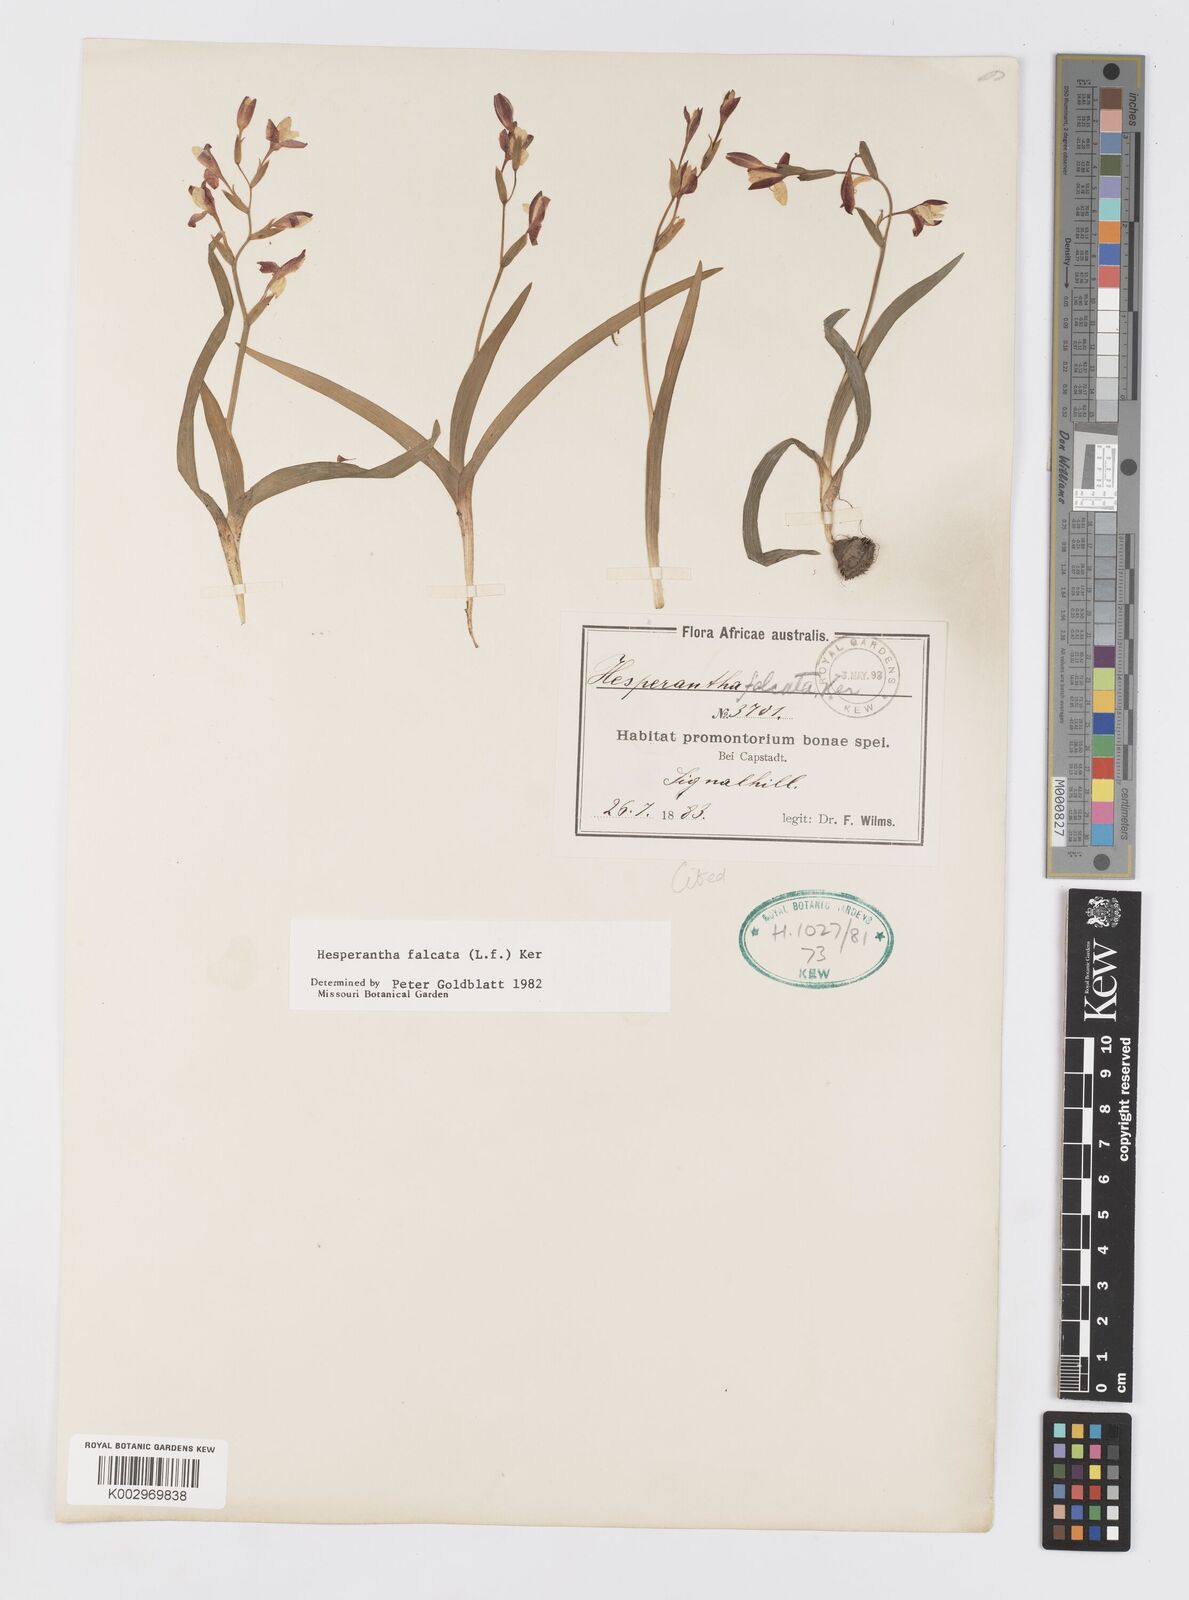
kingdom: Plantae
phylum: Tracheophyta
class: Liliopsida
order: Asparagales
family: Iridaceae
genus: Hesperantha
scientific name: Hesperantha falcata
